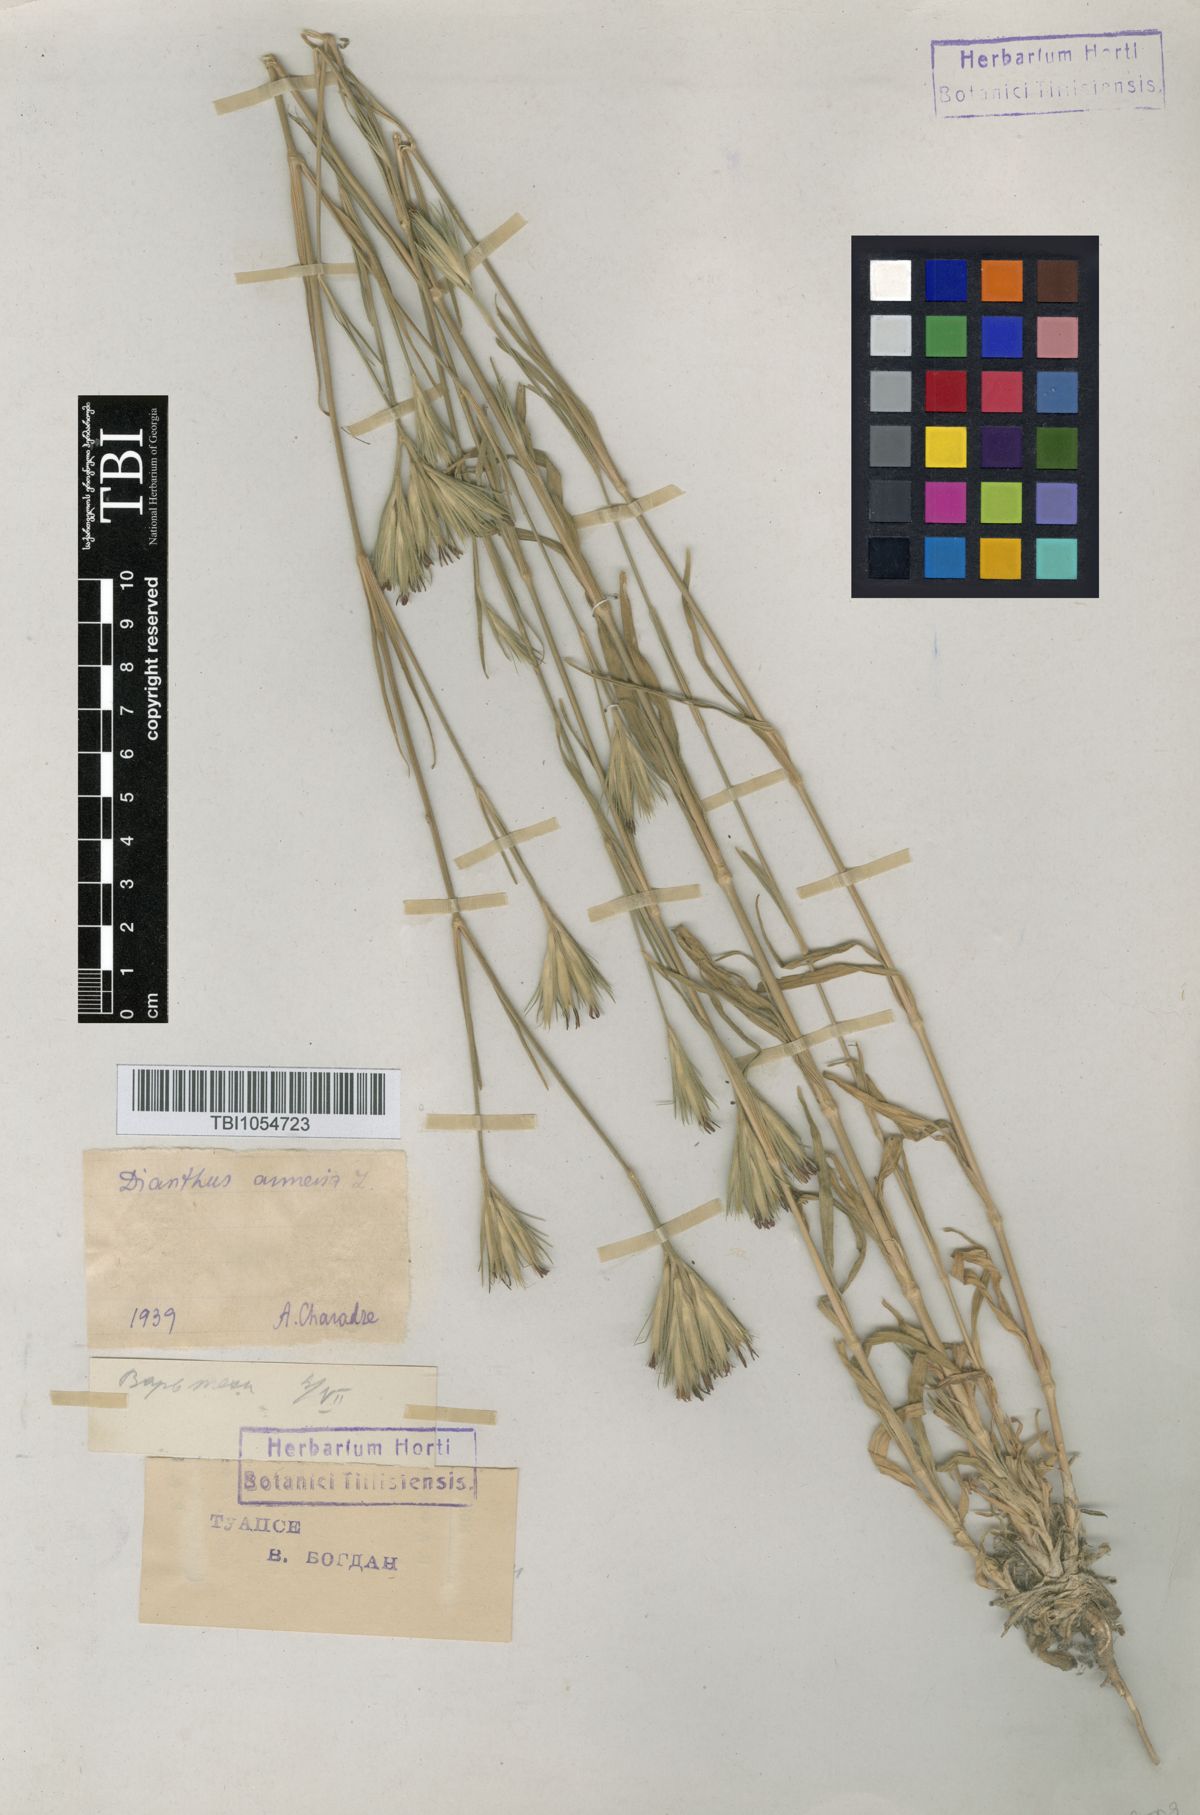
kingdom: Plantae
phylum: Tracheophyta
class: Magnoliopsida
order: Caryophyllales
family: Caryophyllaceae
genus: Dianthus
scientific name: Dianthus armeria
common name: Deptford pink
